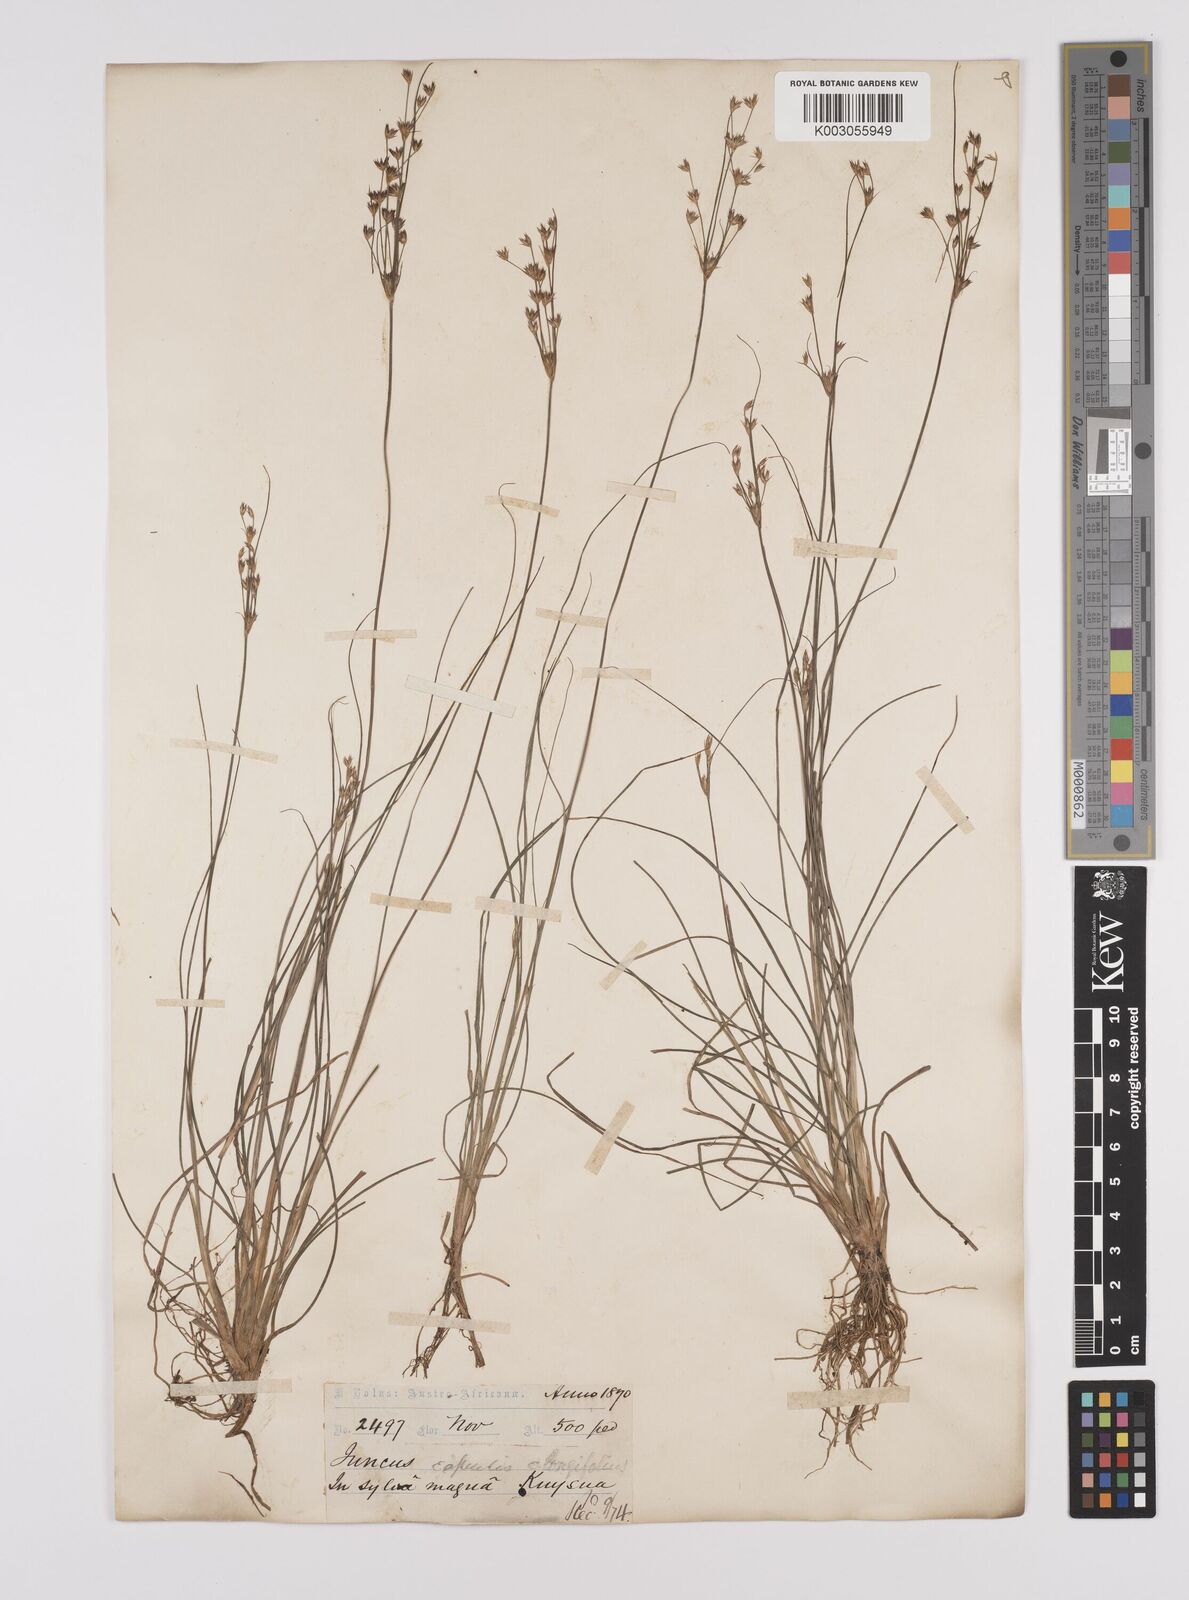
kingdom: Plantae
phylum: Tracheophyta
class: Liliopsida
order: Poales
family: Juncaceae
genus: Juncus
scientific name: Juncus capensis
